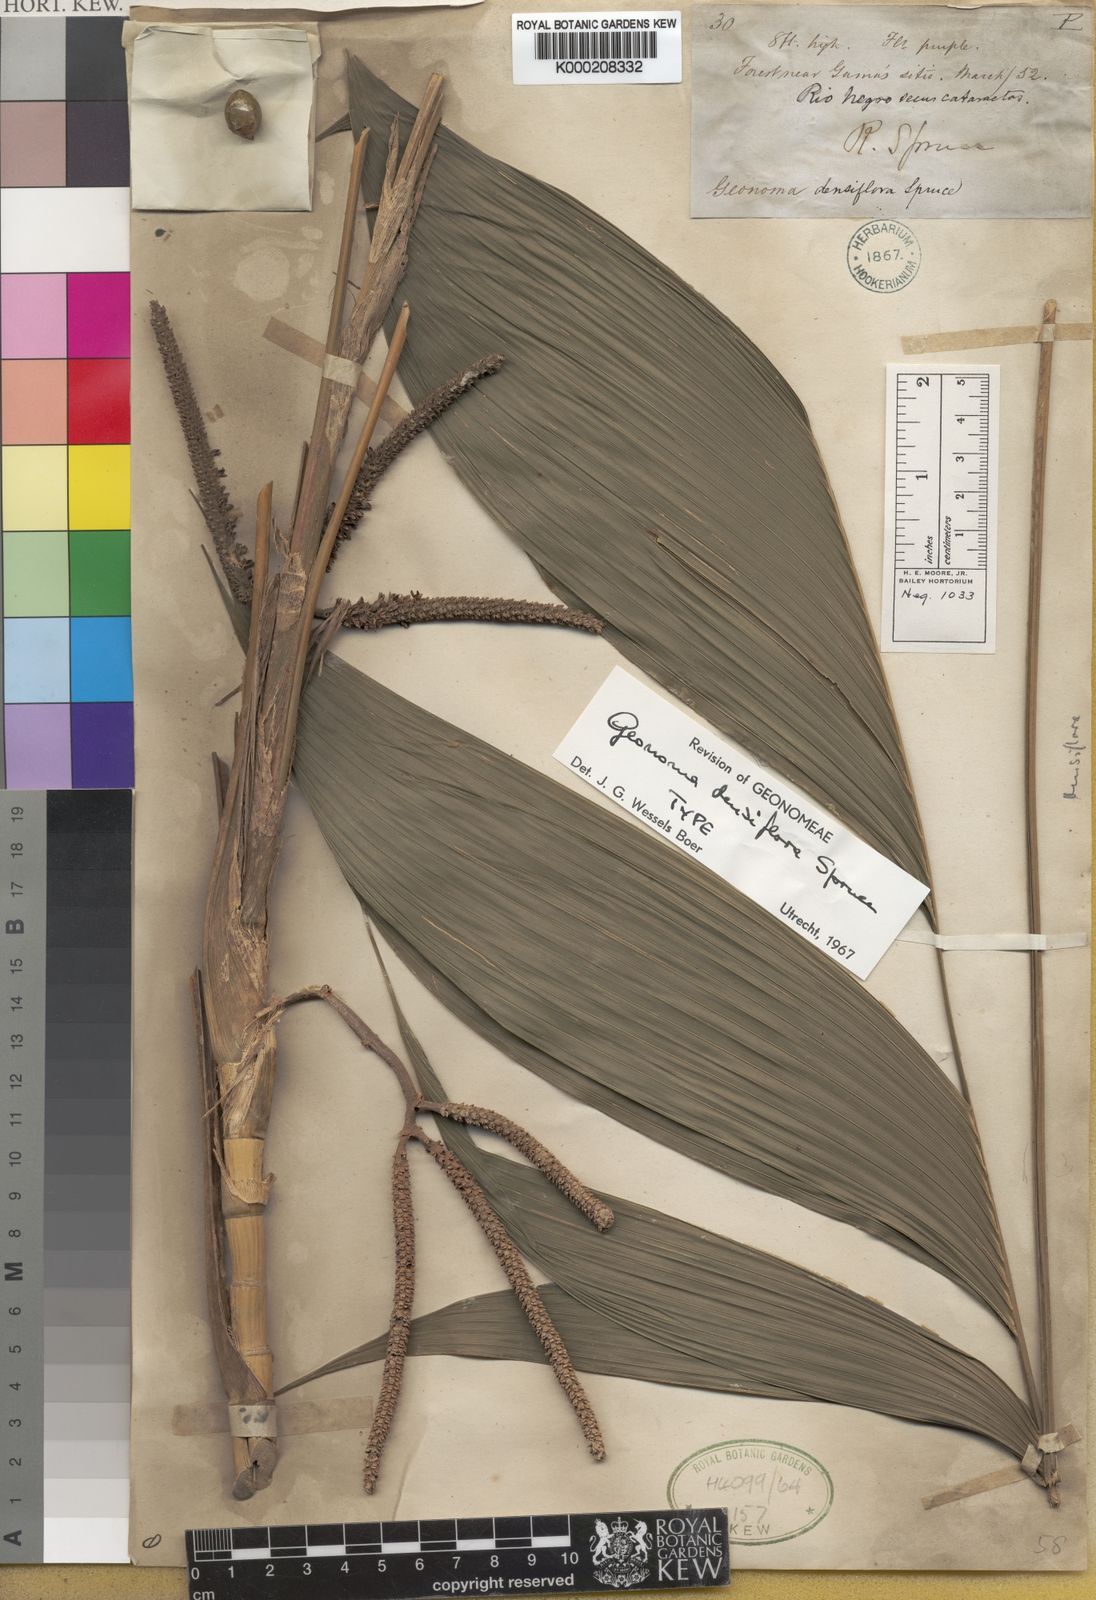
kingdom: Plantae
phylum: Tracheophyta
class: Liliopsida
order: Arecales
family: Arecaceae
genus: Geonoma
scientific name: Geonoma maxima
